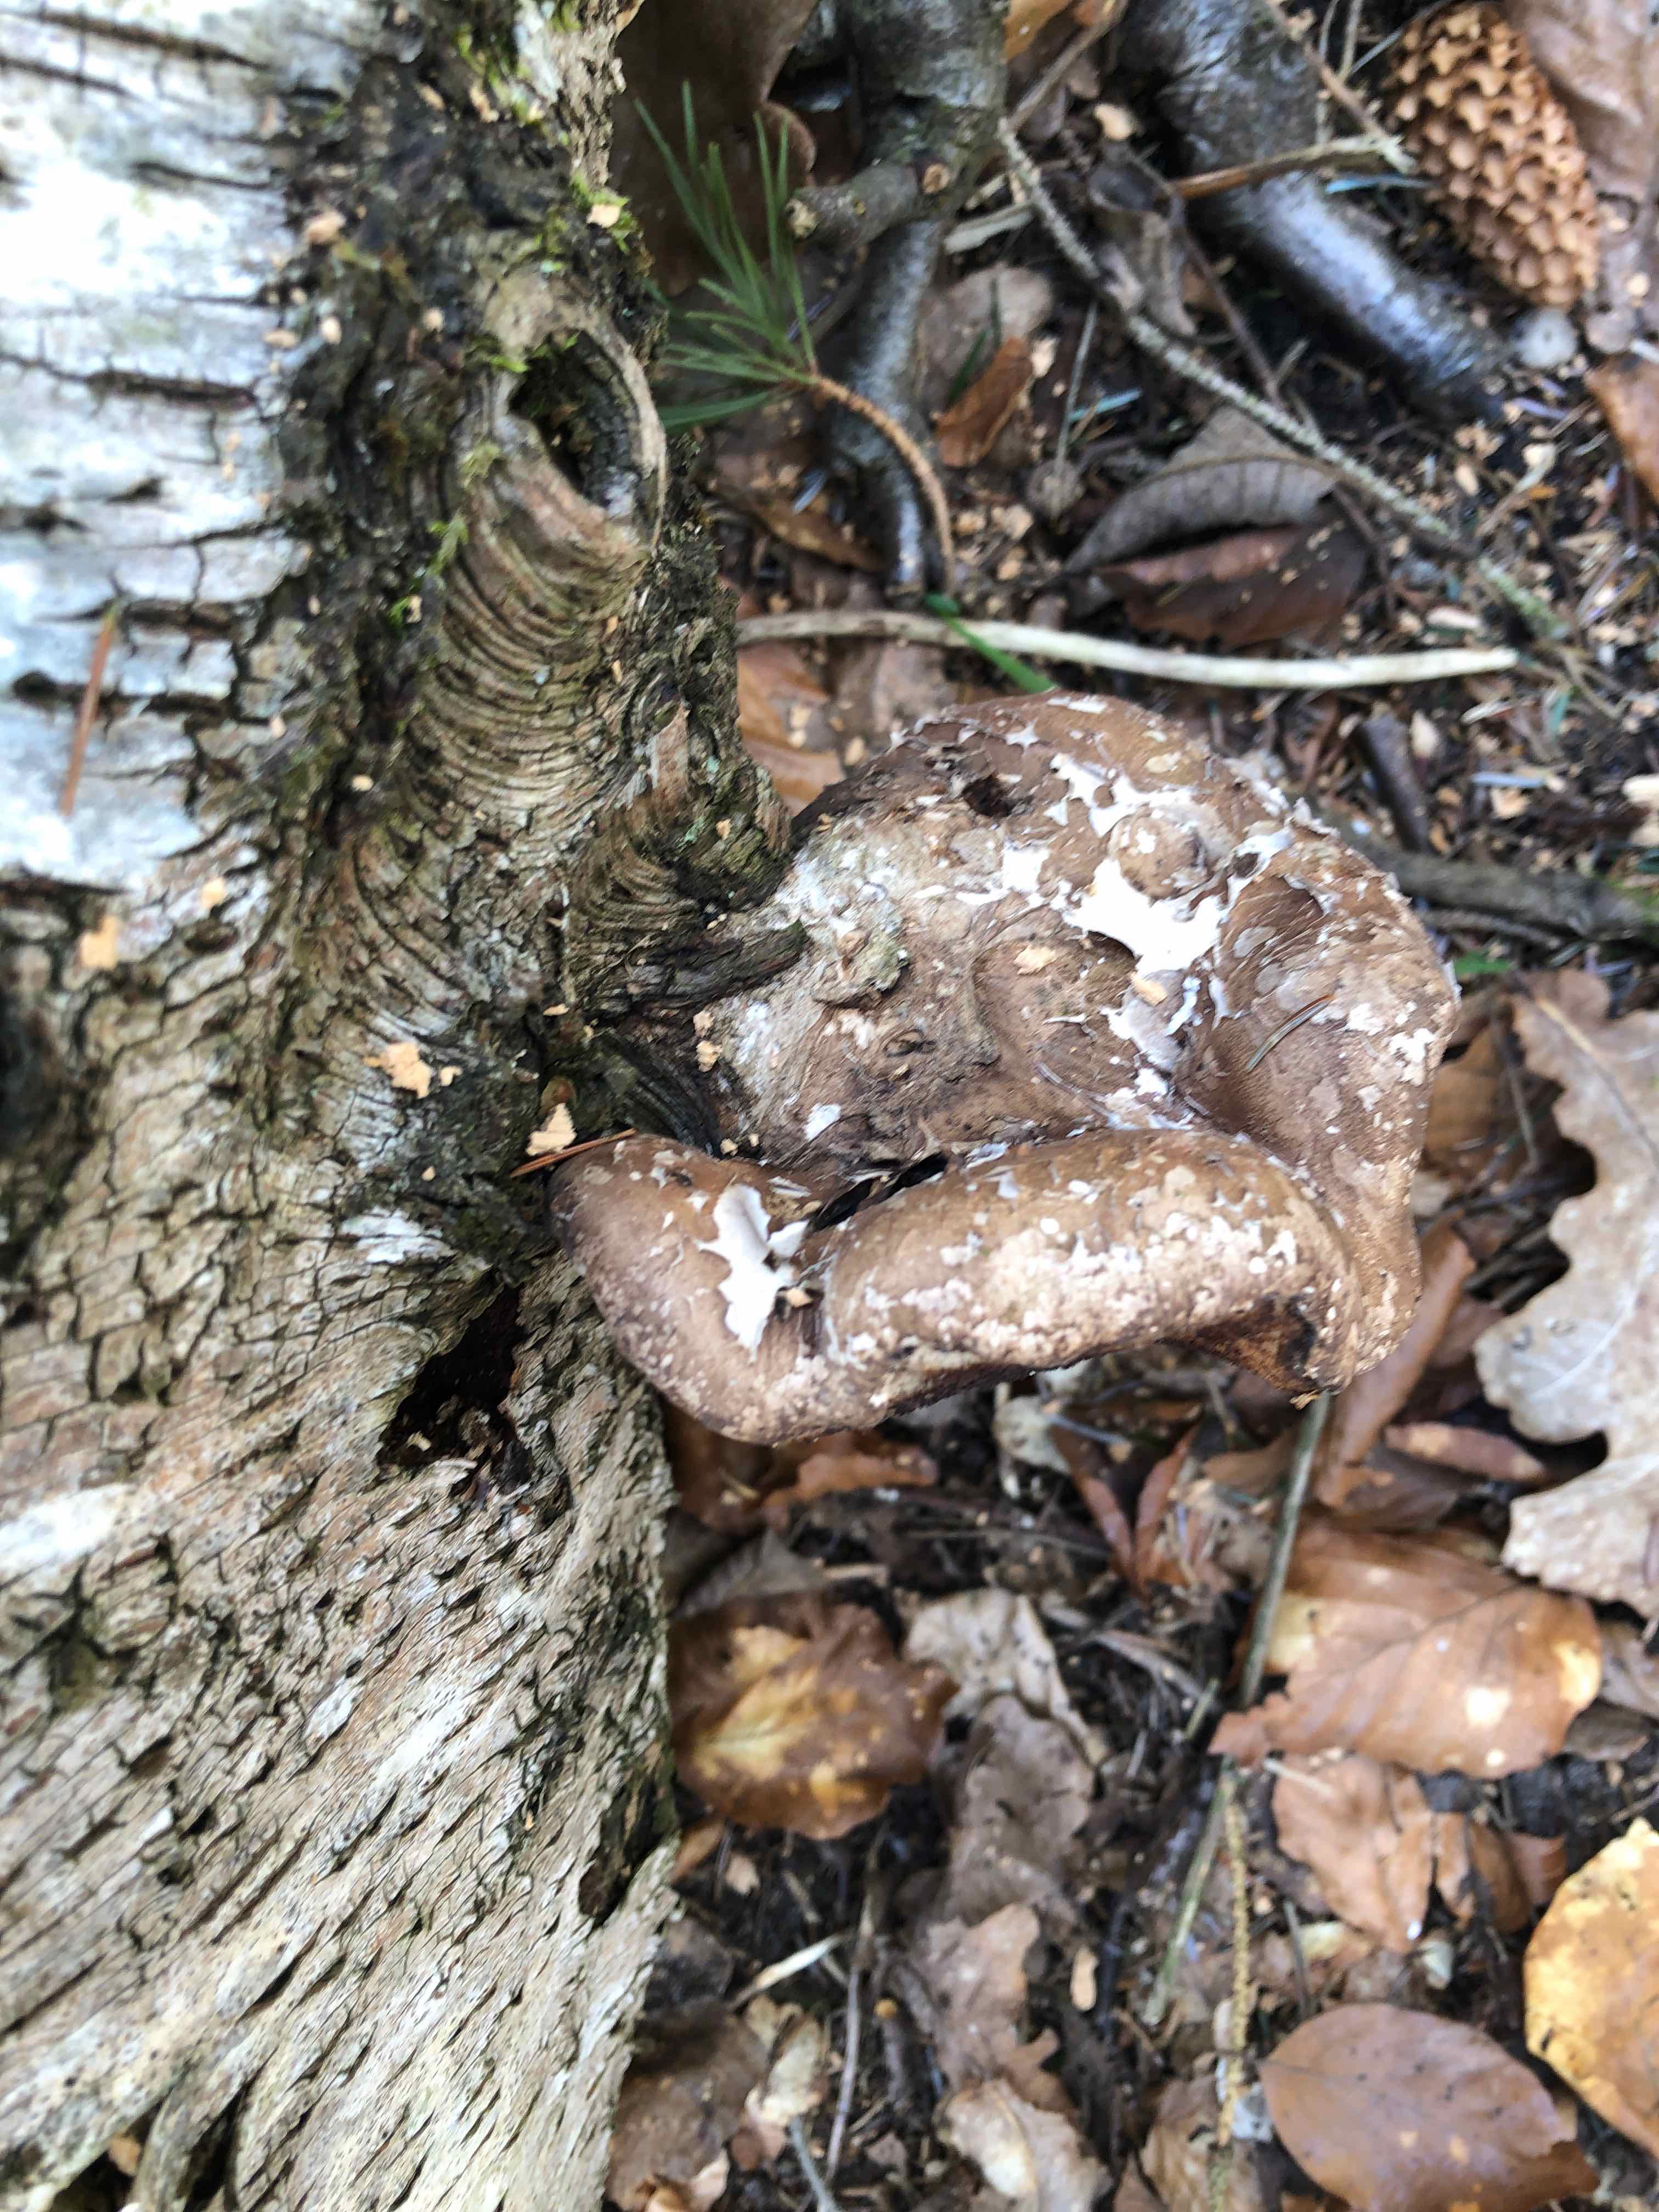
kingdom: Fungi
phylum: Basidiomycota
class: Agaricomycetes
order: Polyporales
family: Fomitopsidaceae
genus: Fomitopsis
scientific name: Fomitopsis betulina
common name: birkeporesvamp
